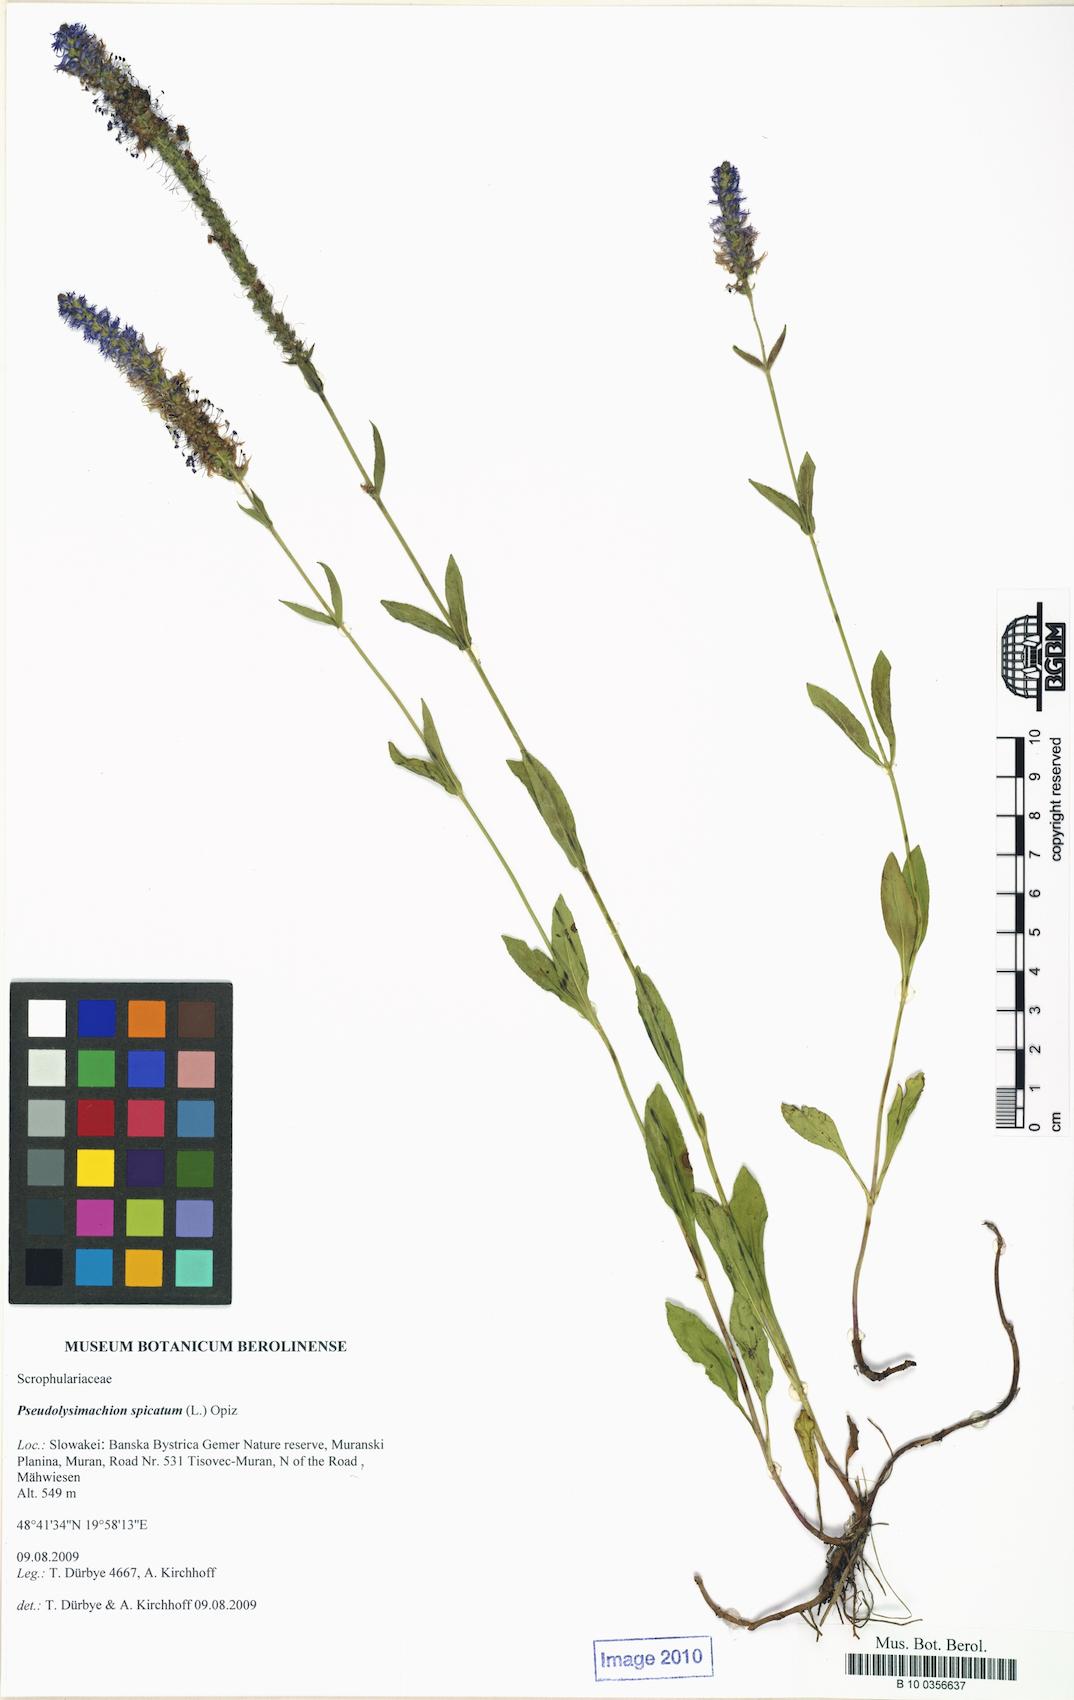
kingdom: Plantae
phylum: Tracheophyta
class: Magnoliopsida
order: Lamiales
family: Plantaginaceae
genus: Veronica
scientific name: Veronica spicata
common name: Spiked speedwell
